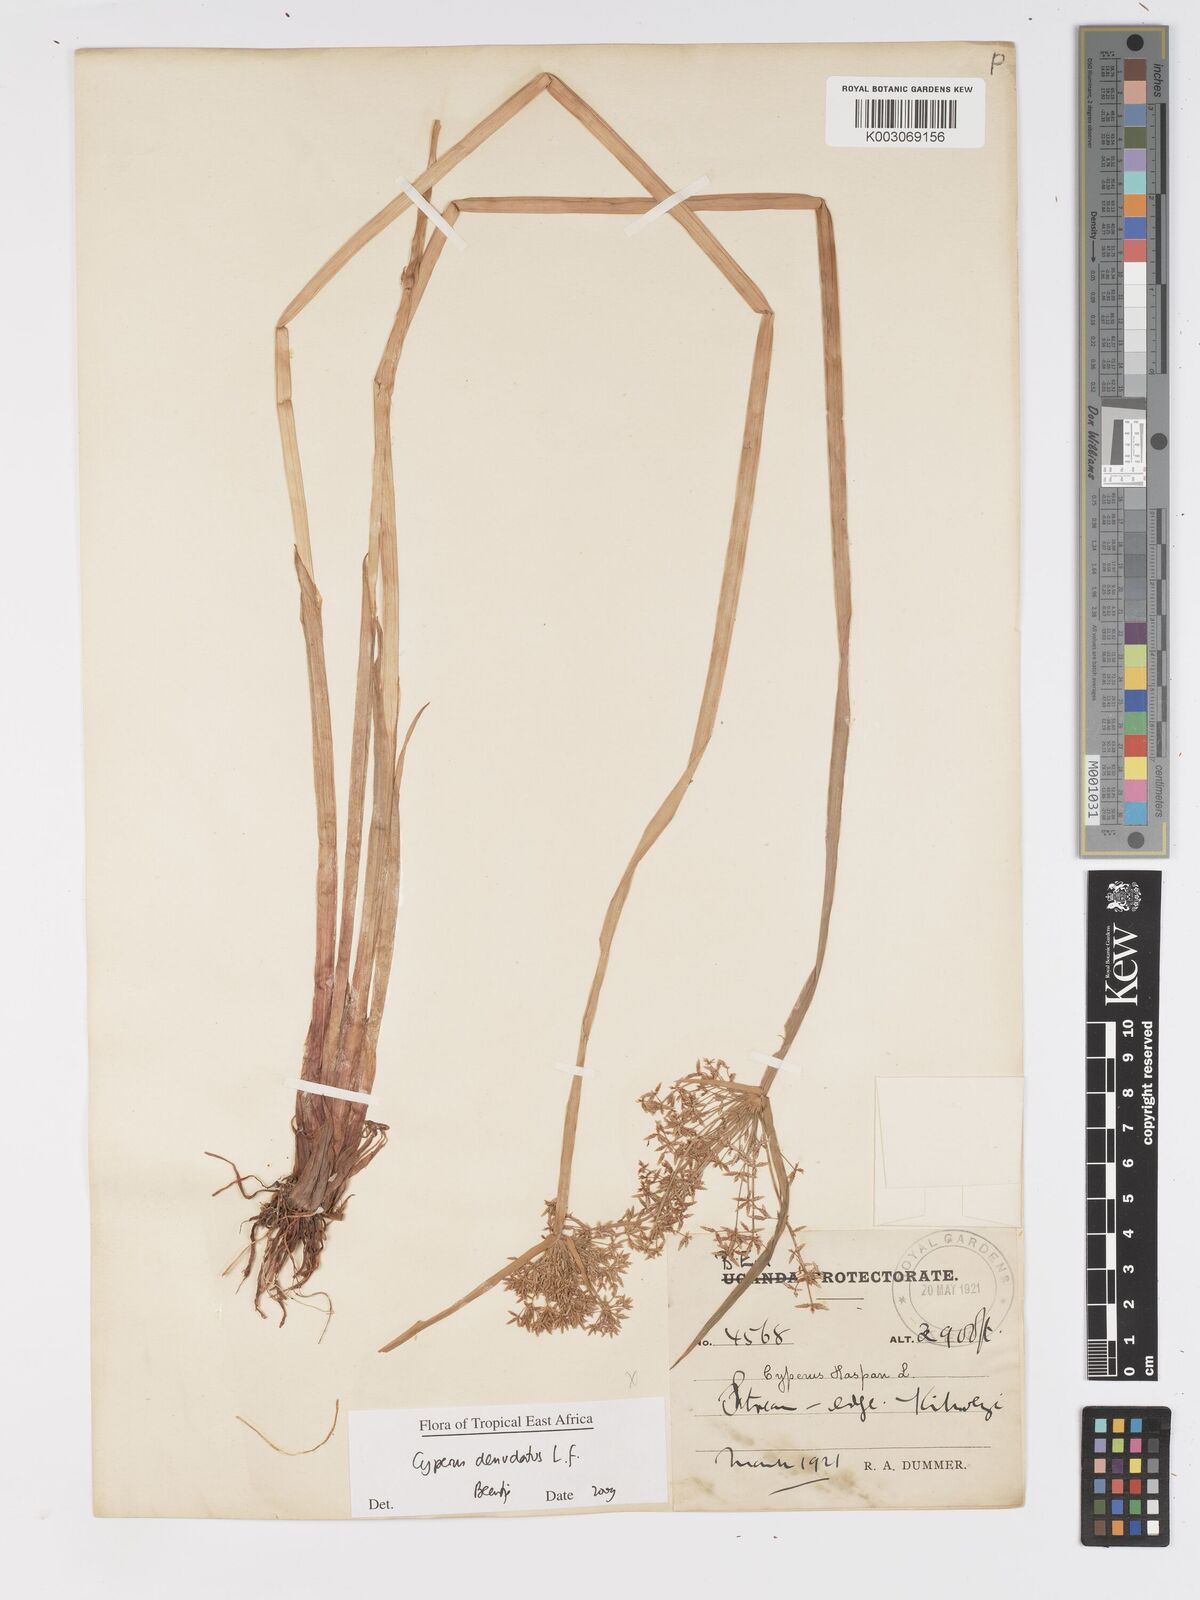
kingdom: Plantae
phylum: Tracheophyta
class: Liliopsida
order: Poales
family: Cyperaceae
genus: Cyperus
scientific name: Cyperus denudatus
